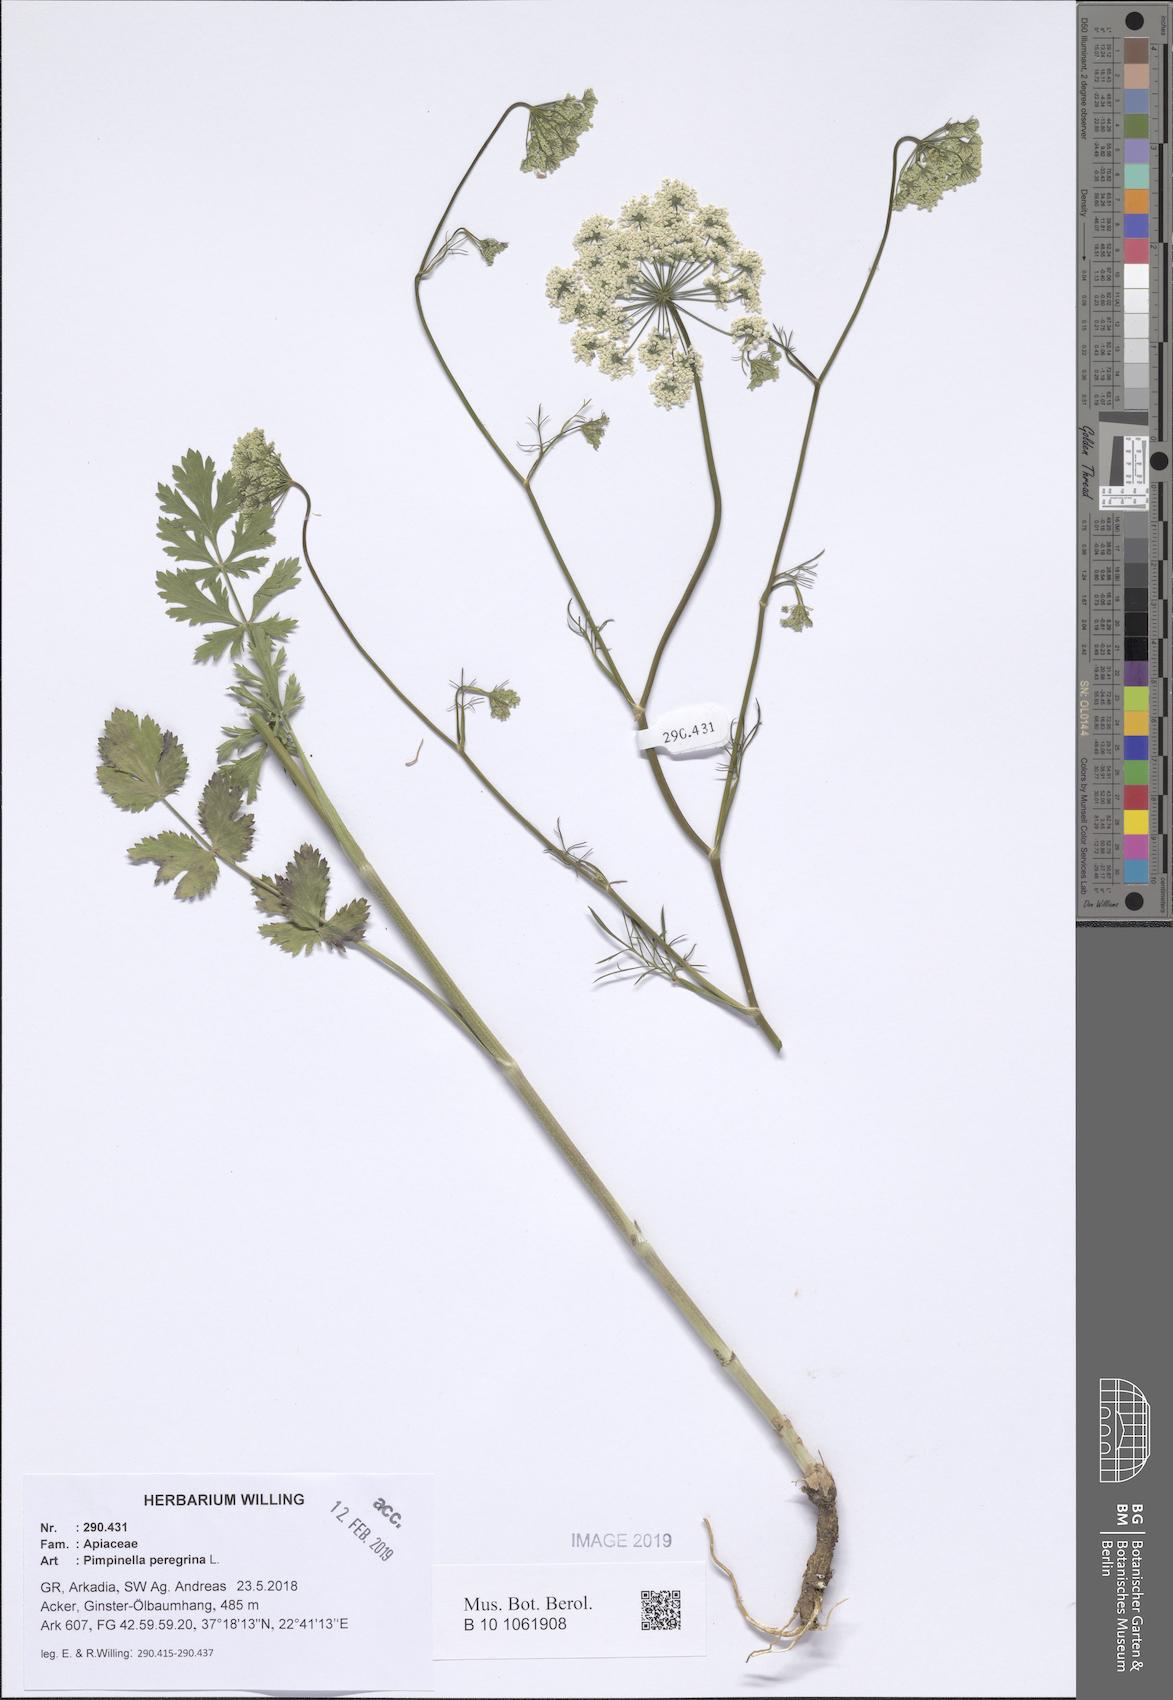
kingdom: Plantae
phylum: Tracheophyta
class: Magnoliopsida
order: Apiales
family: Apiaceae
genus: Pimpinella
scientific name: Pimpinella peregrina
